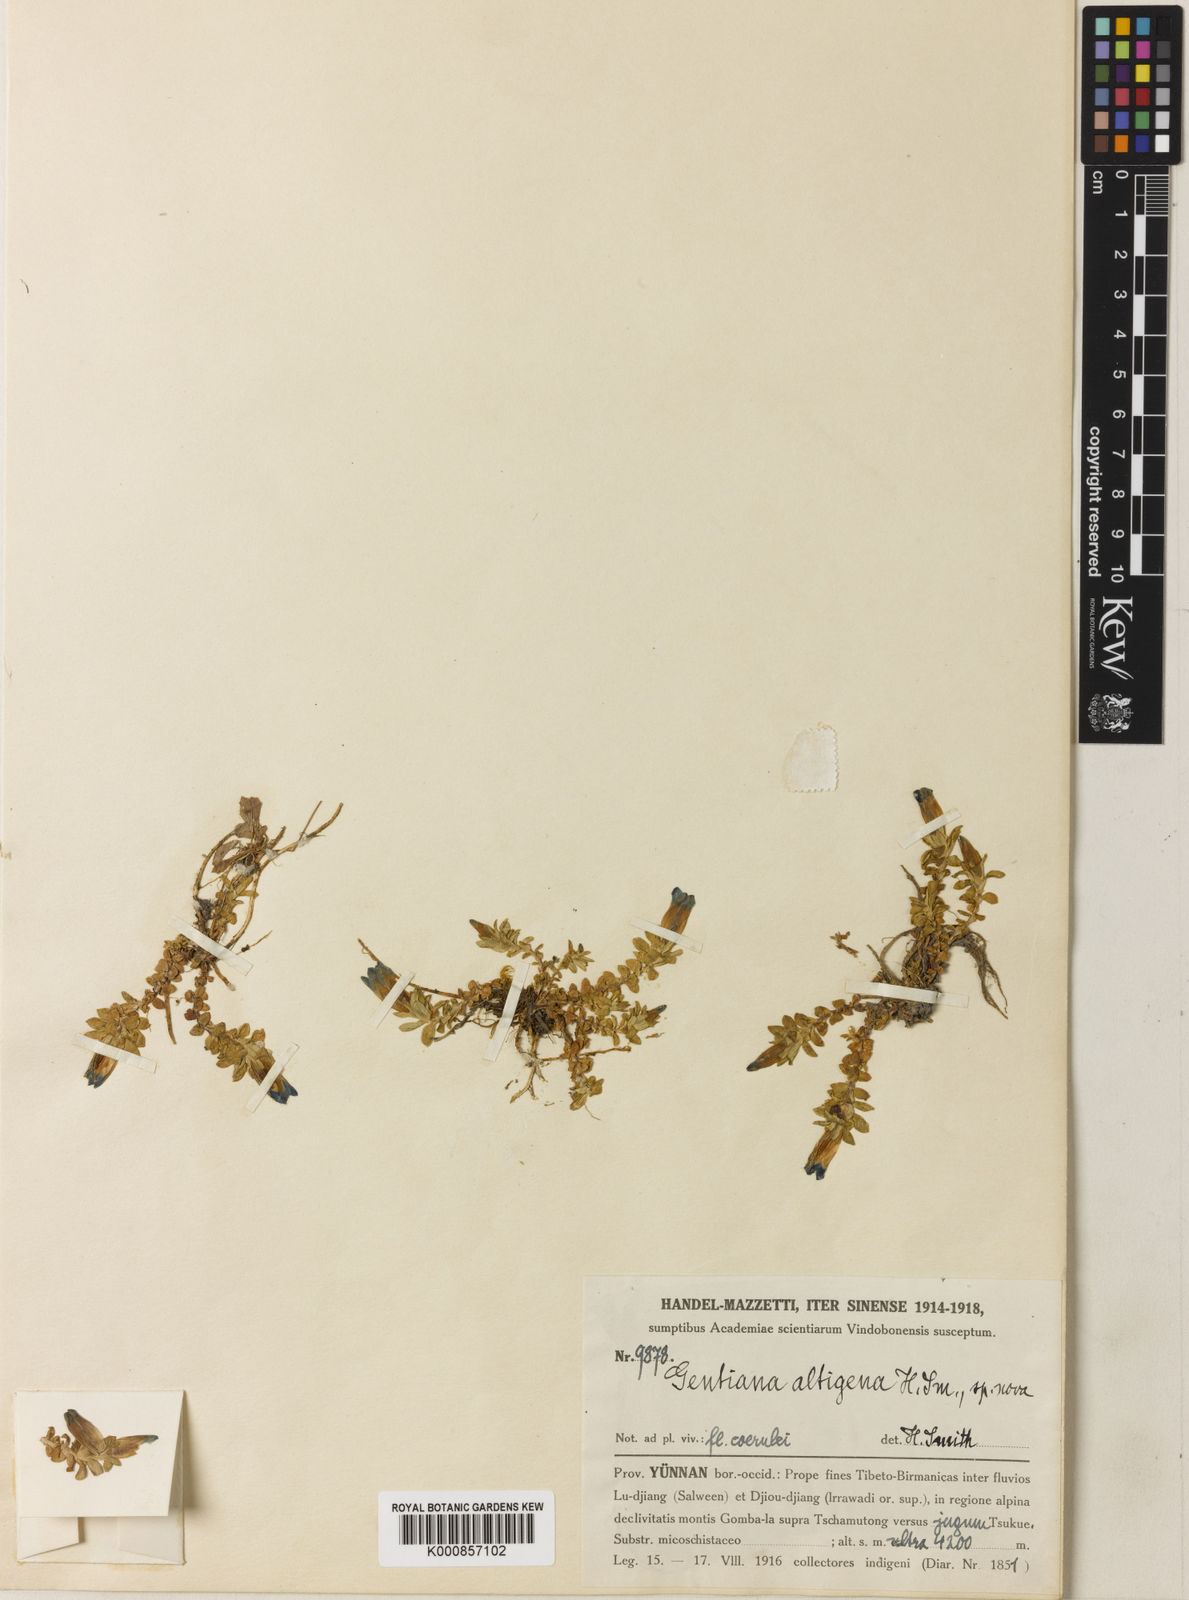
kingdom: Plantae
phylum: Tracheophyta
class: Magnoliopsida
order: Gentianales
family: Gentianaceae
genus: Gentiana
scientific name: Gentiana altigena
